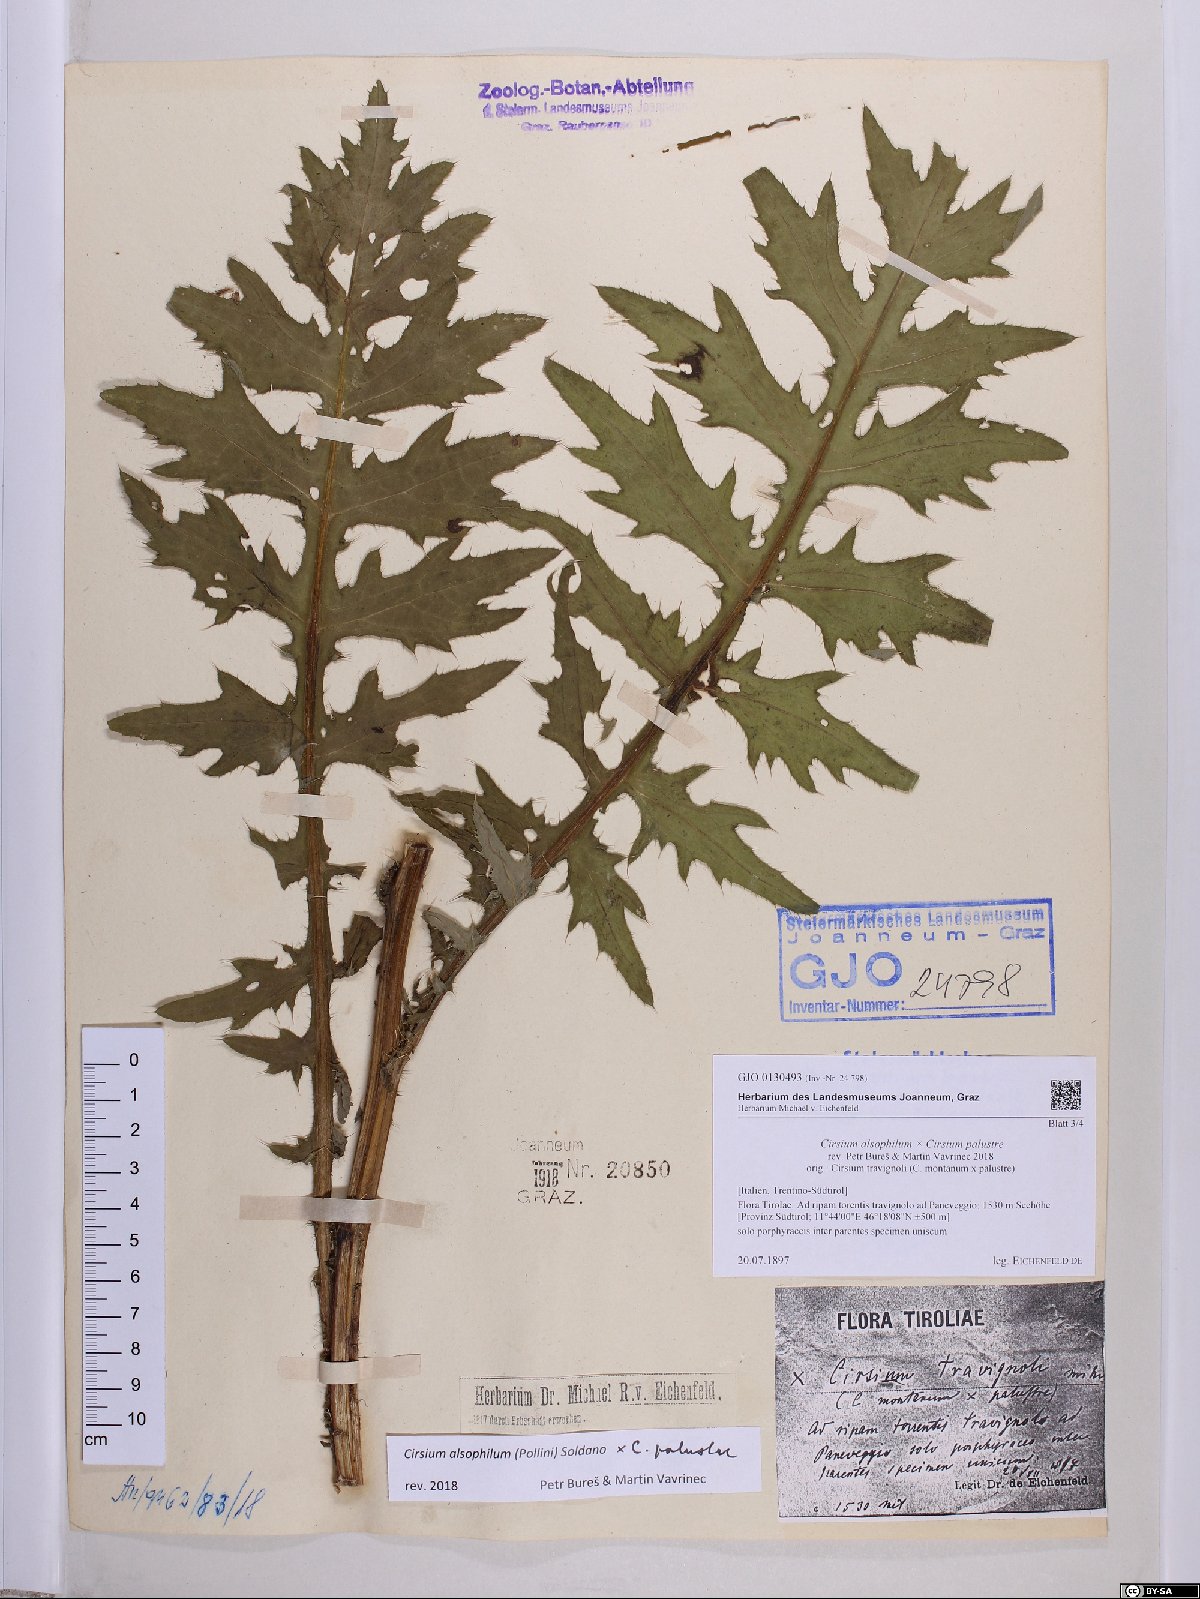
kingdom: Plantae
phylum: Tracheophyta
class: Magnoliopsida
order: Asterales
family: Asteraceae
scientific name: Asteraceae
